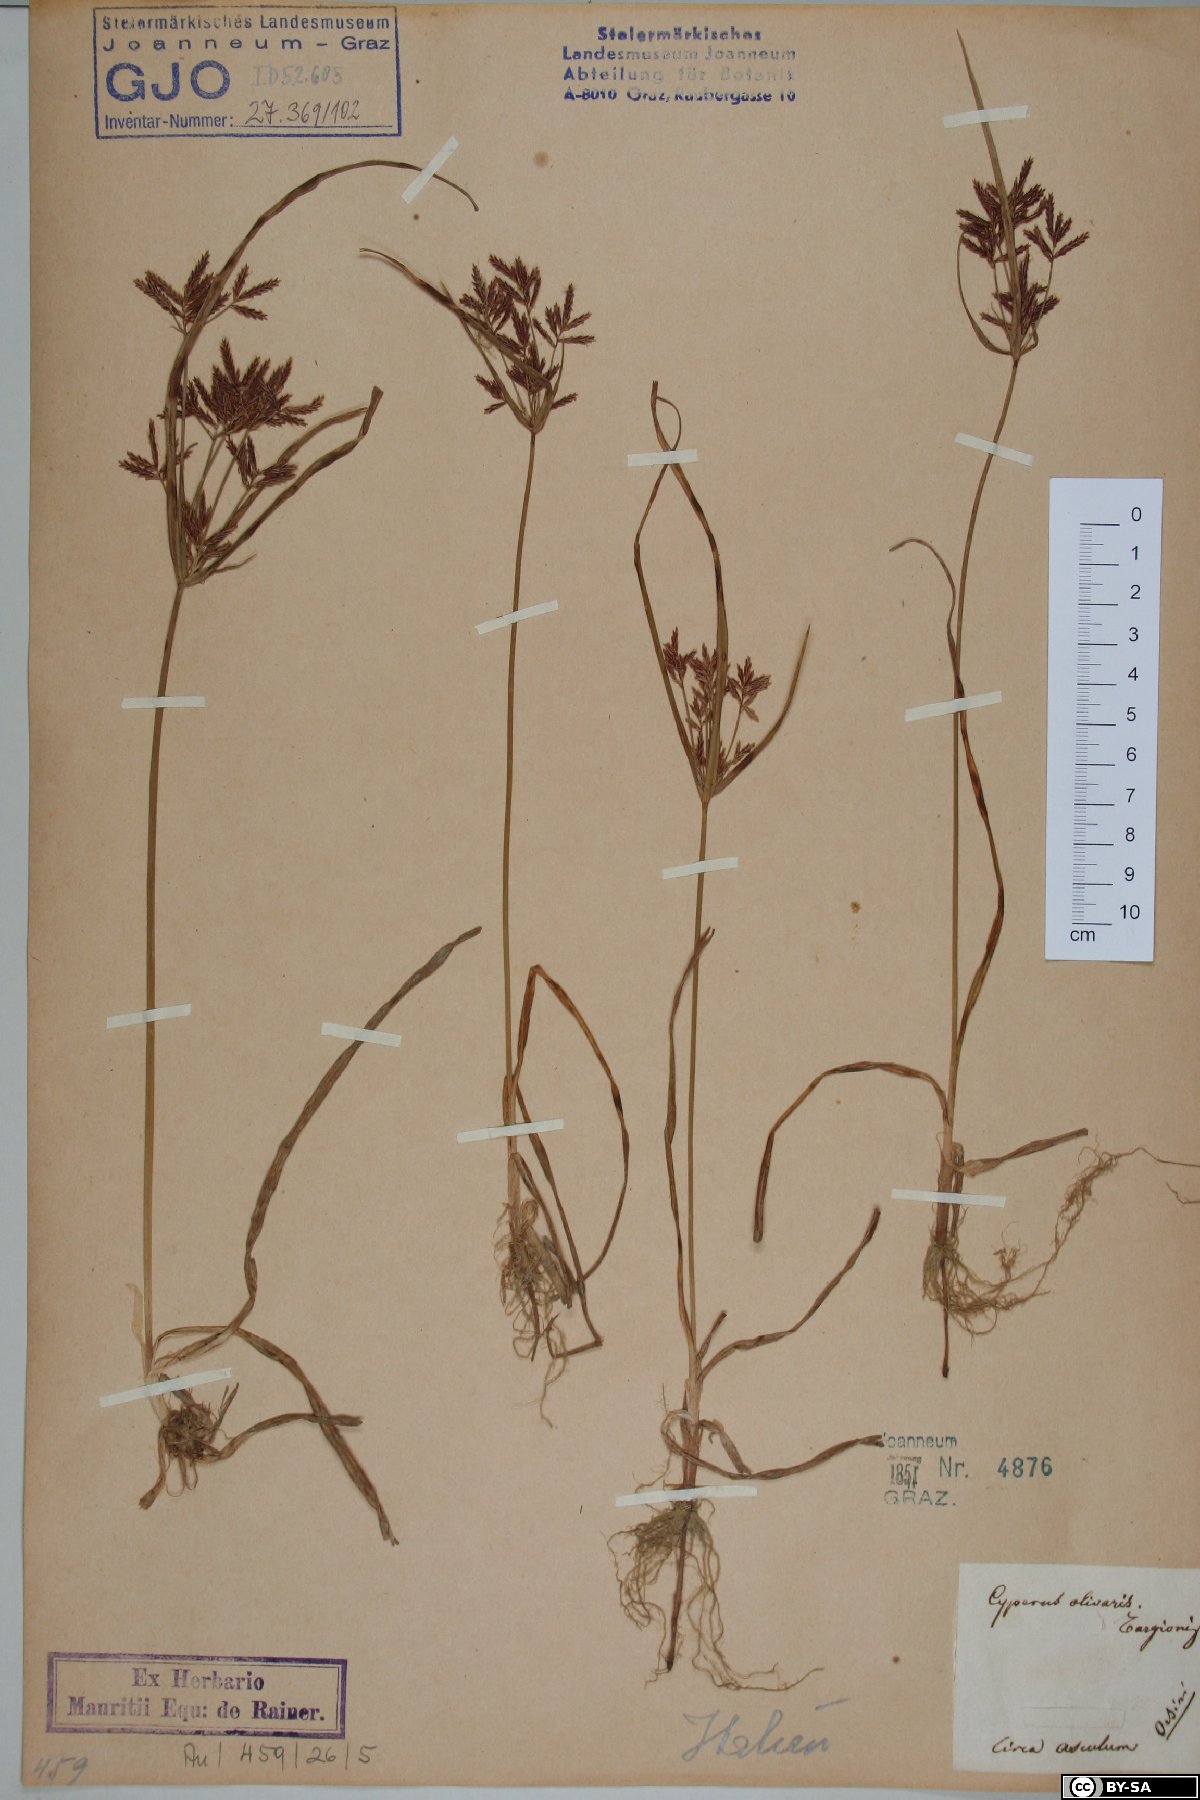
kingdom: Plantae
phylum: Tracheophyta
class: Liliopsida
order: Poales
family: Cyperaceae
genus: Cyperus
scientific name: Cyperus rotundus
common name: Nutgrass
